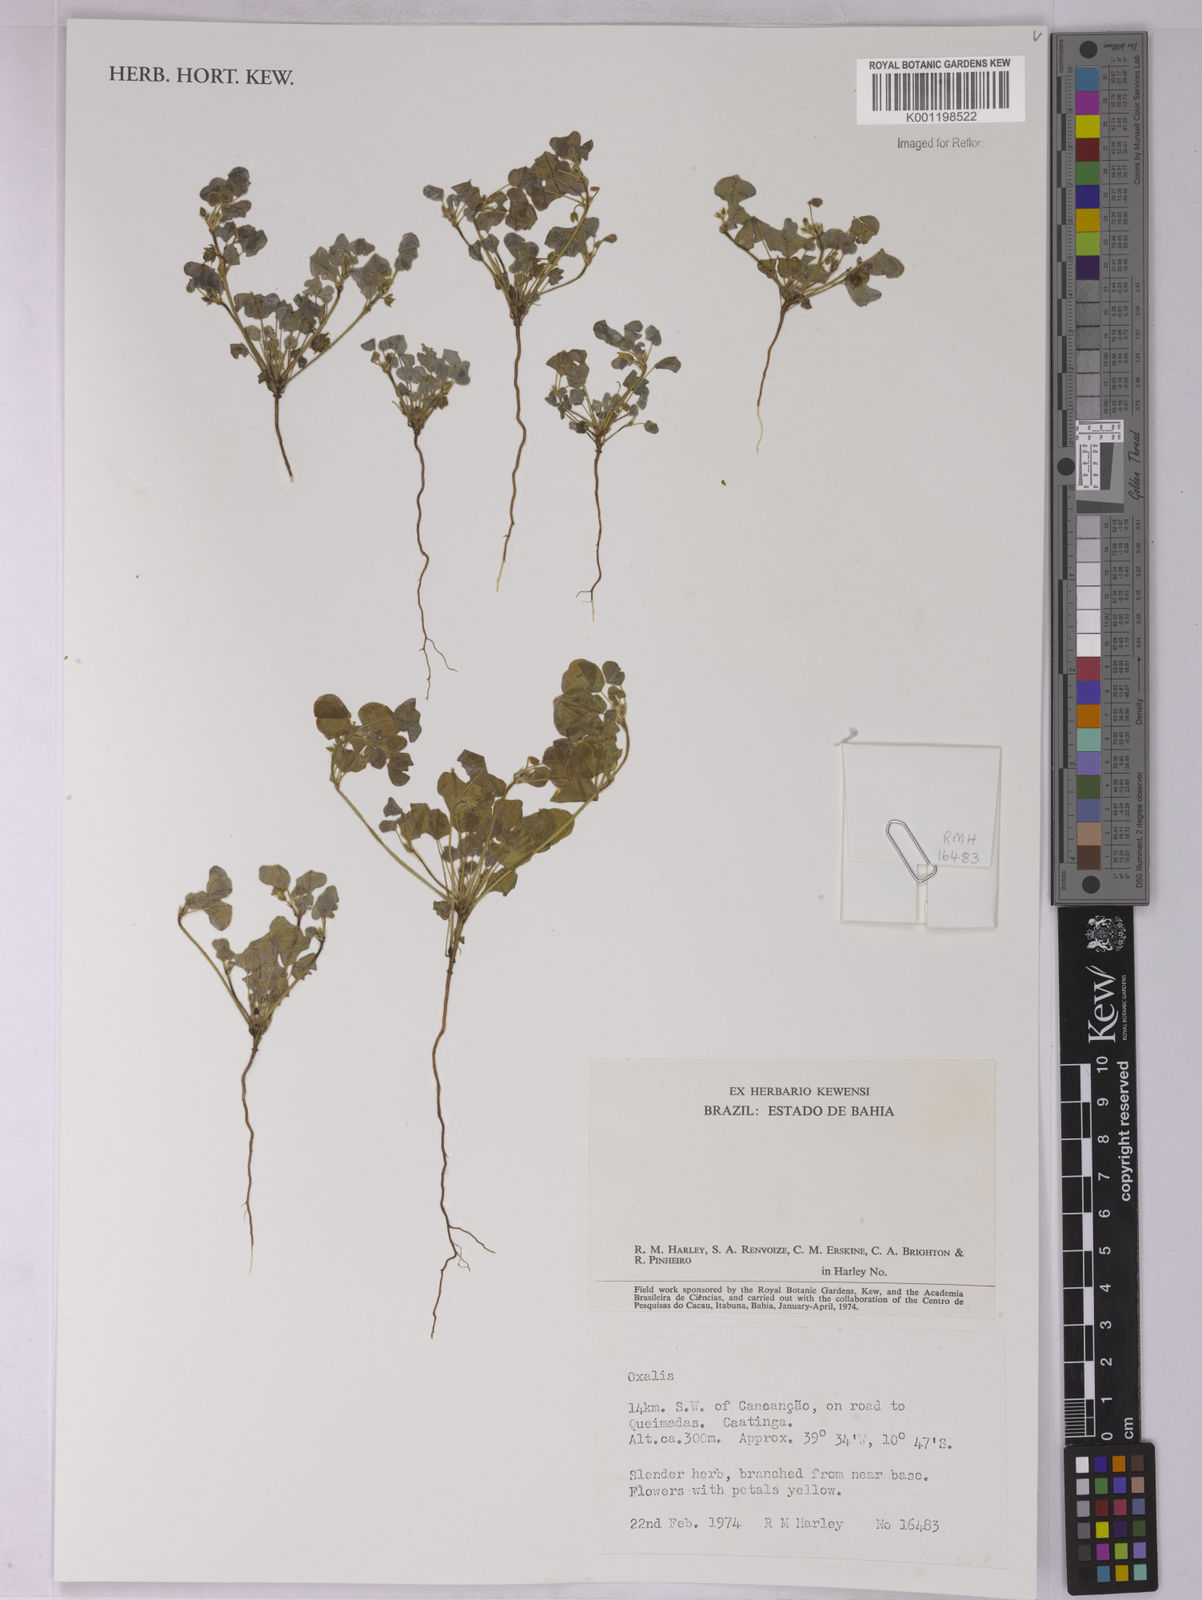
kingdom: Plantae
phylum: Tracheophyta
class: Magnoliopsida
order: Oxalidales
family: Oxalidaceae
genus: Oxalis
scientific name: Oxalis
